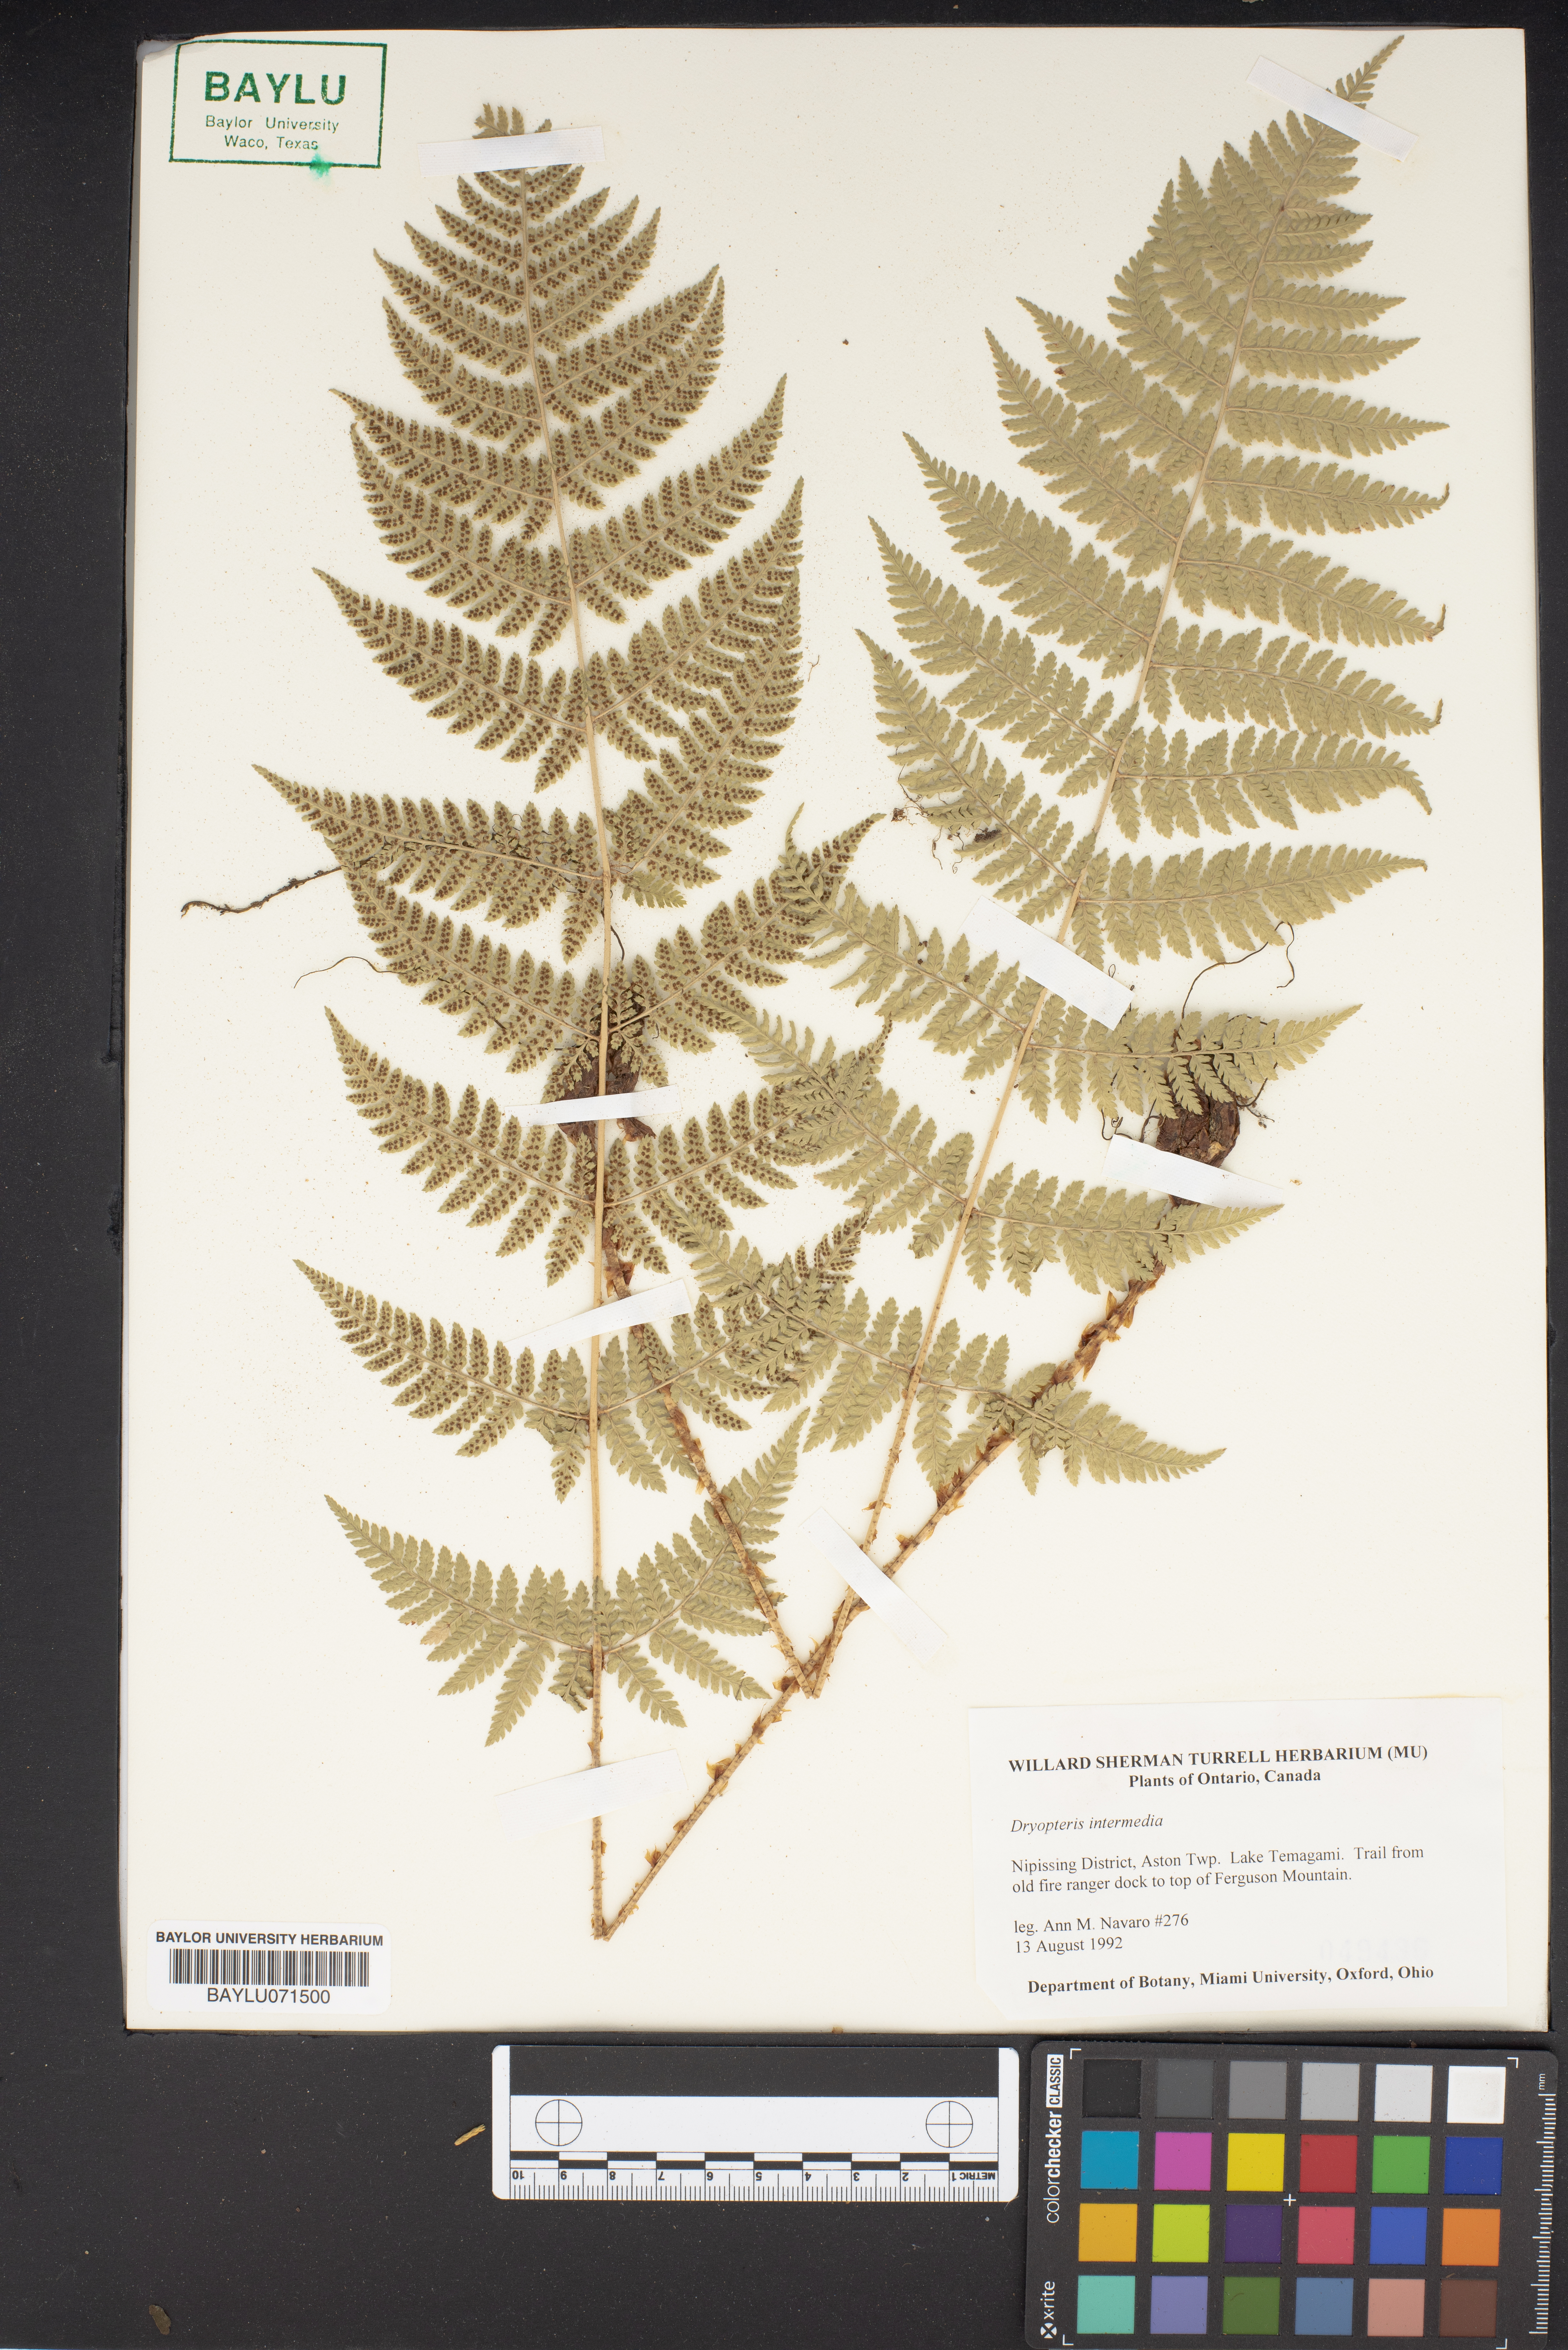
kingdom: Plantae
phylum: Tracheophyta
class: Polypodiopsida
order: Polypodiales
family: Dryopteridaceae
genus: Dryopteris
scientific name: Dryopteris intermedia
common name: Evergreen wood fern
